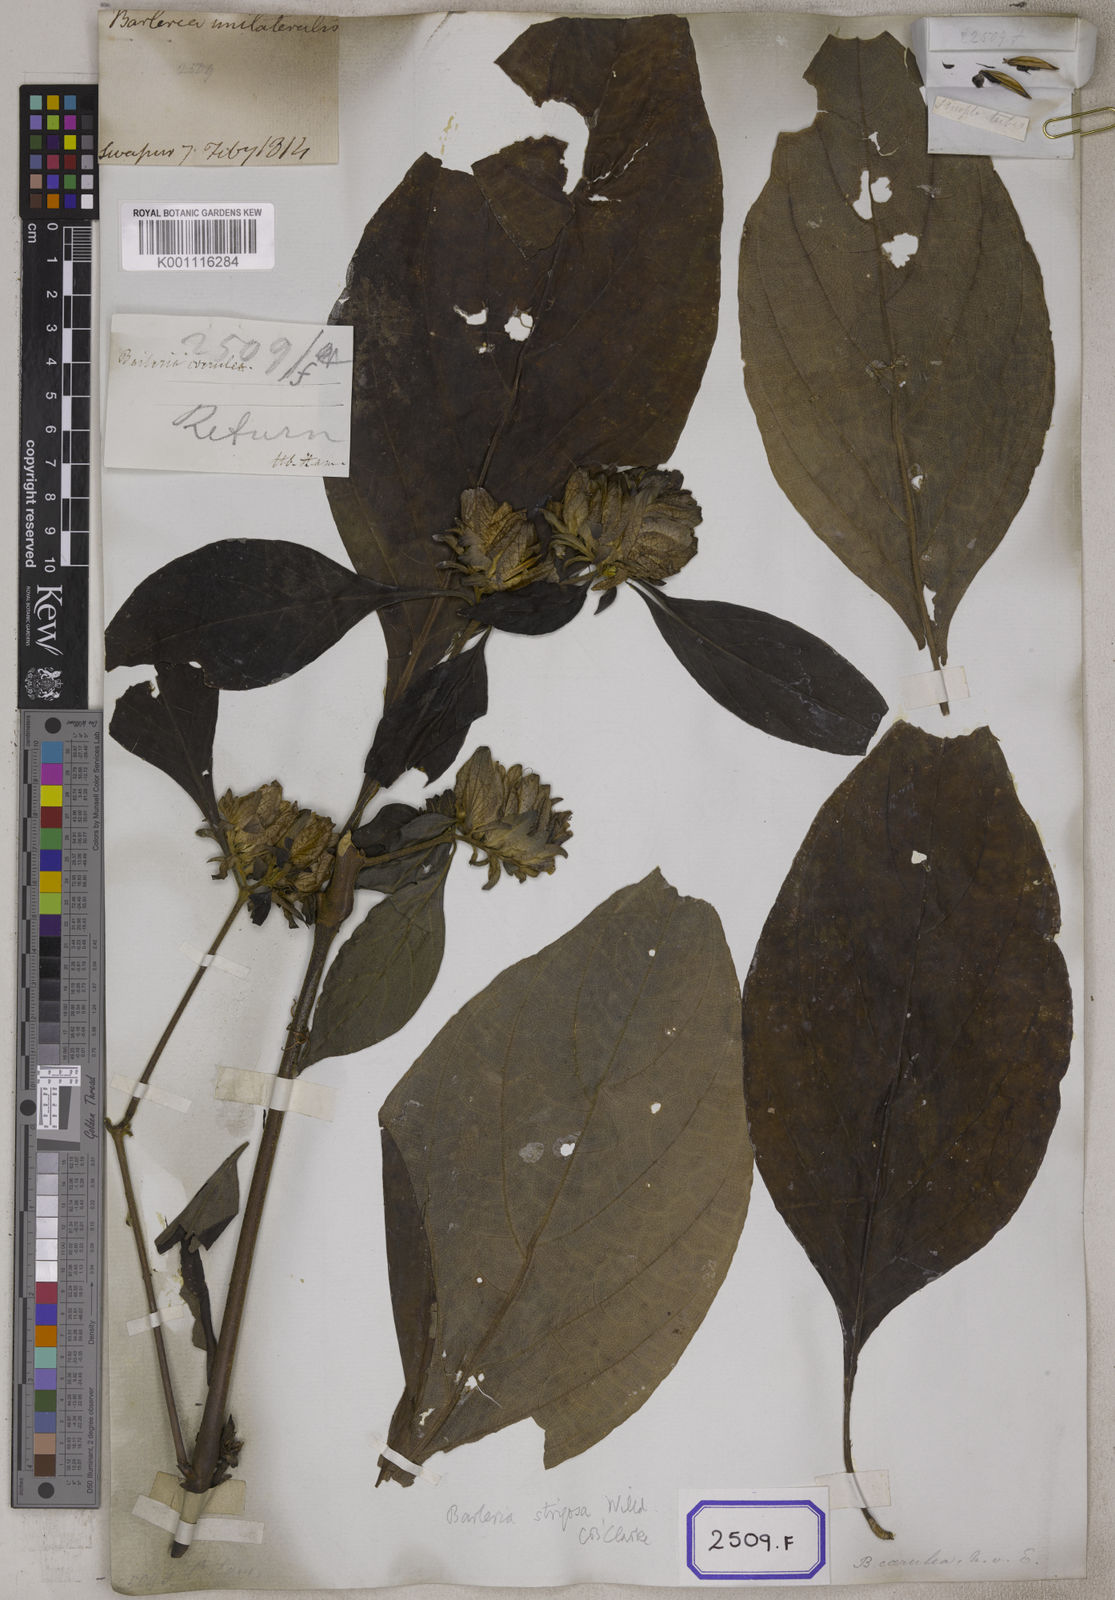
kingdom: Plantae
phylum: Tracheophyta
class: Magnoliopsida
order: Lamiales
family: Acanthaceae
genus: Barleria
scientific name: Barleria strigosa
